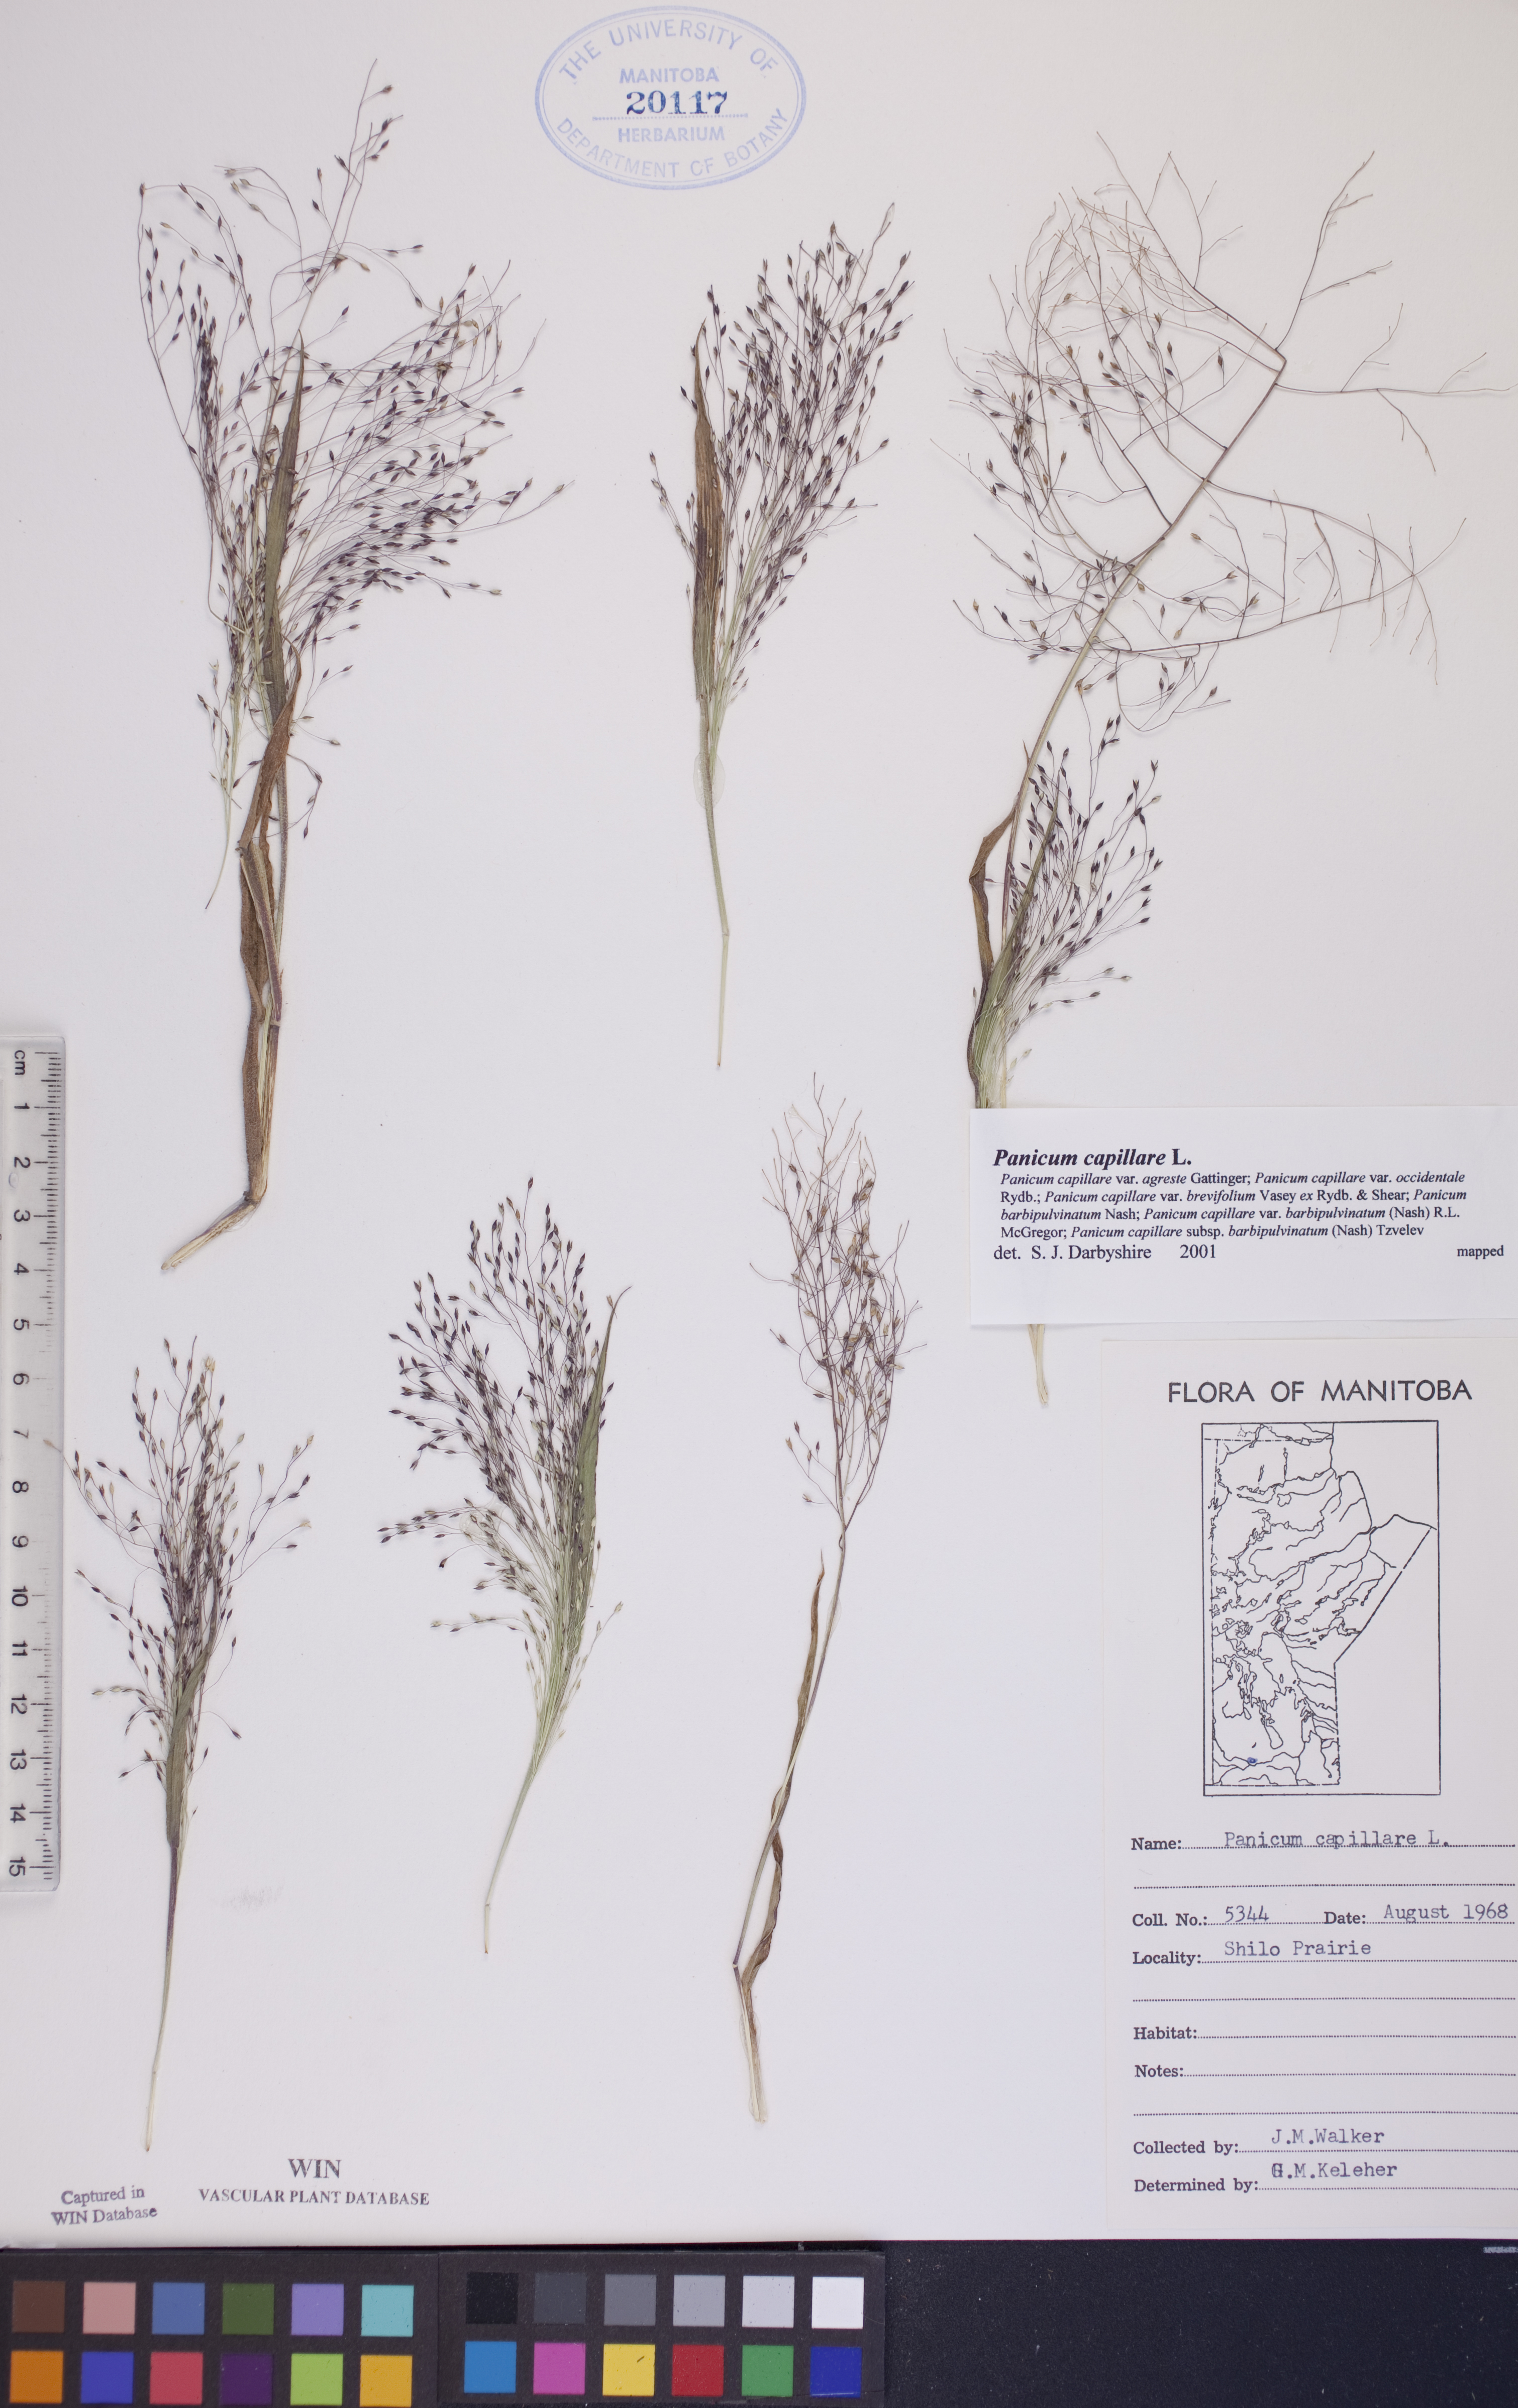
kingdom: Plantae
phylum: Tracheophyta
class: Liliopsida
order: Poales
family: Poaceae
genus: Panicum
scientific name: Panicum capillare
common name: Witch-grass
